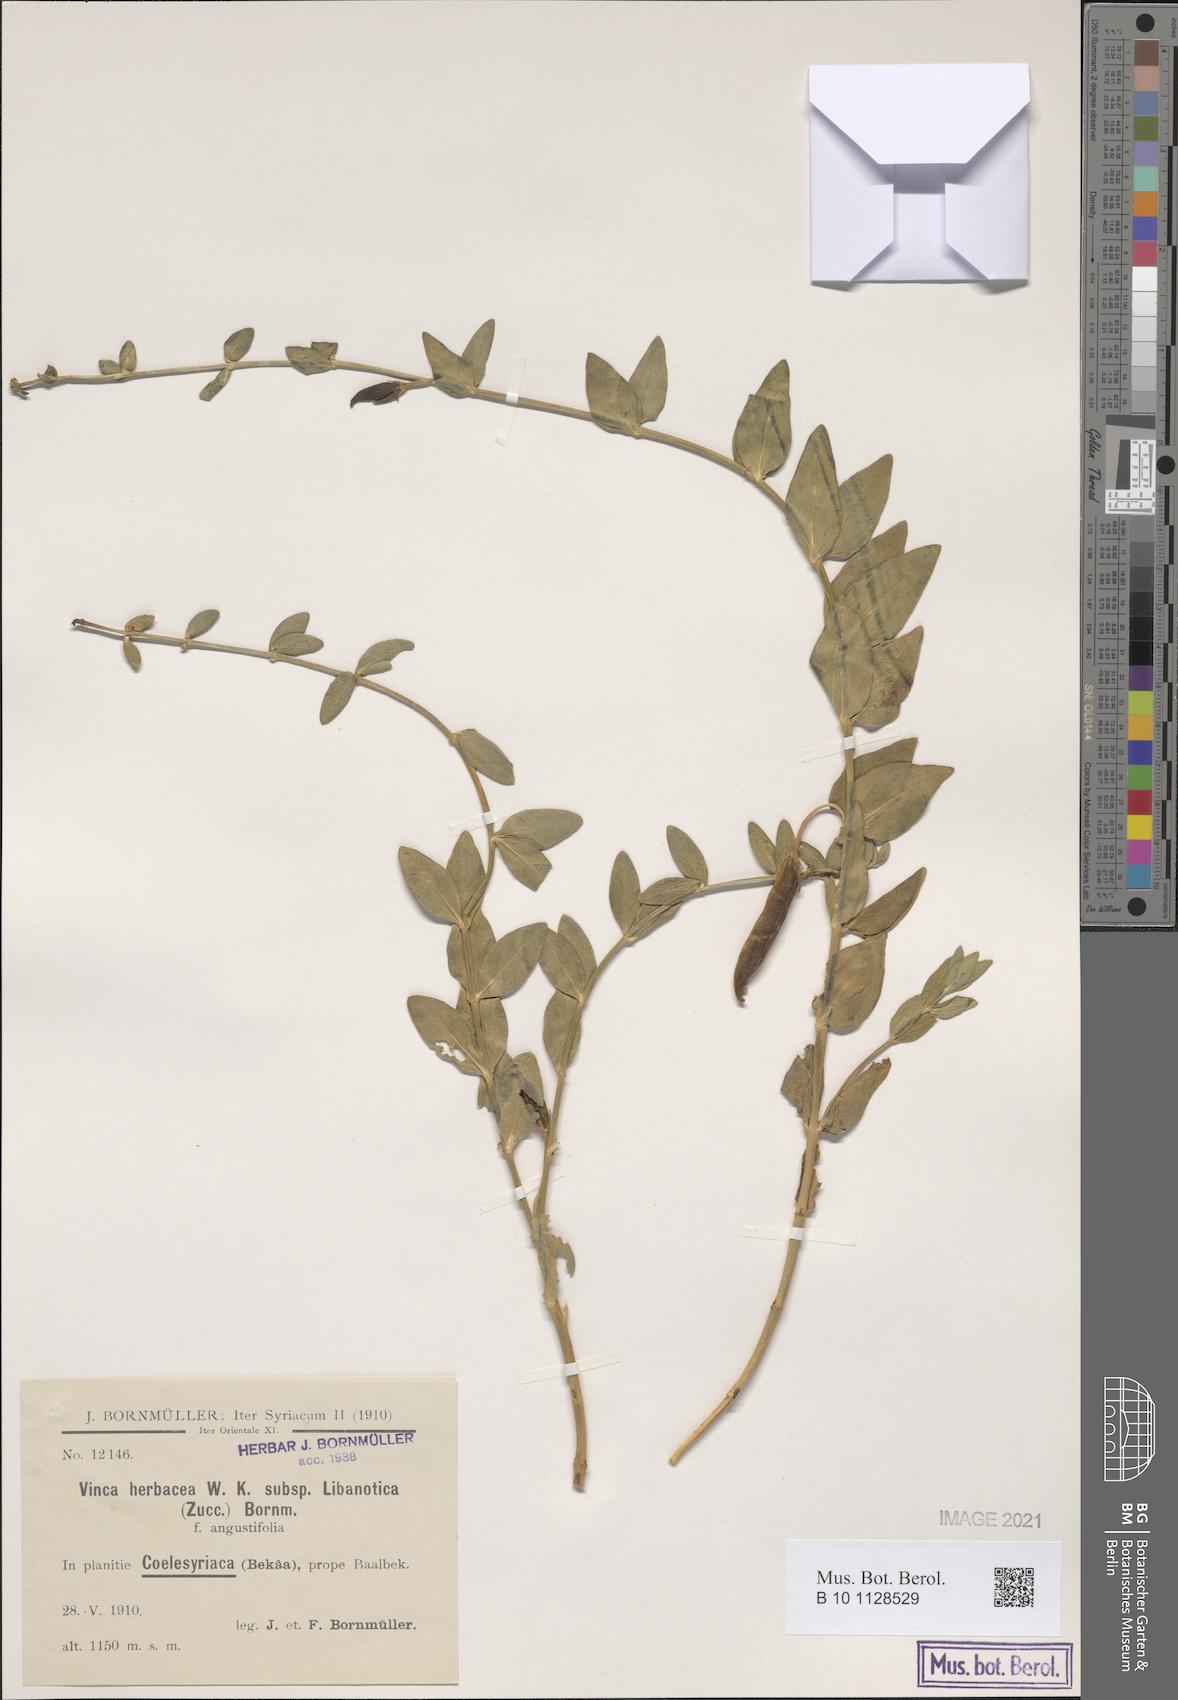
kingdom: Plantae
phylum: Tracheophyta
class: Magnoliopsida
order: Gentianales
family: Apocynaceae
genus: Vinca
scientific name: Vinca herbacea
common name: Herbaceous periwinkle
